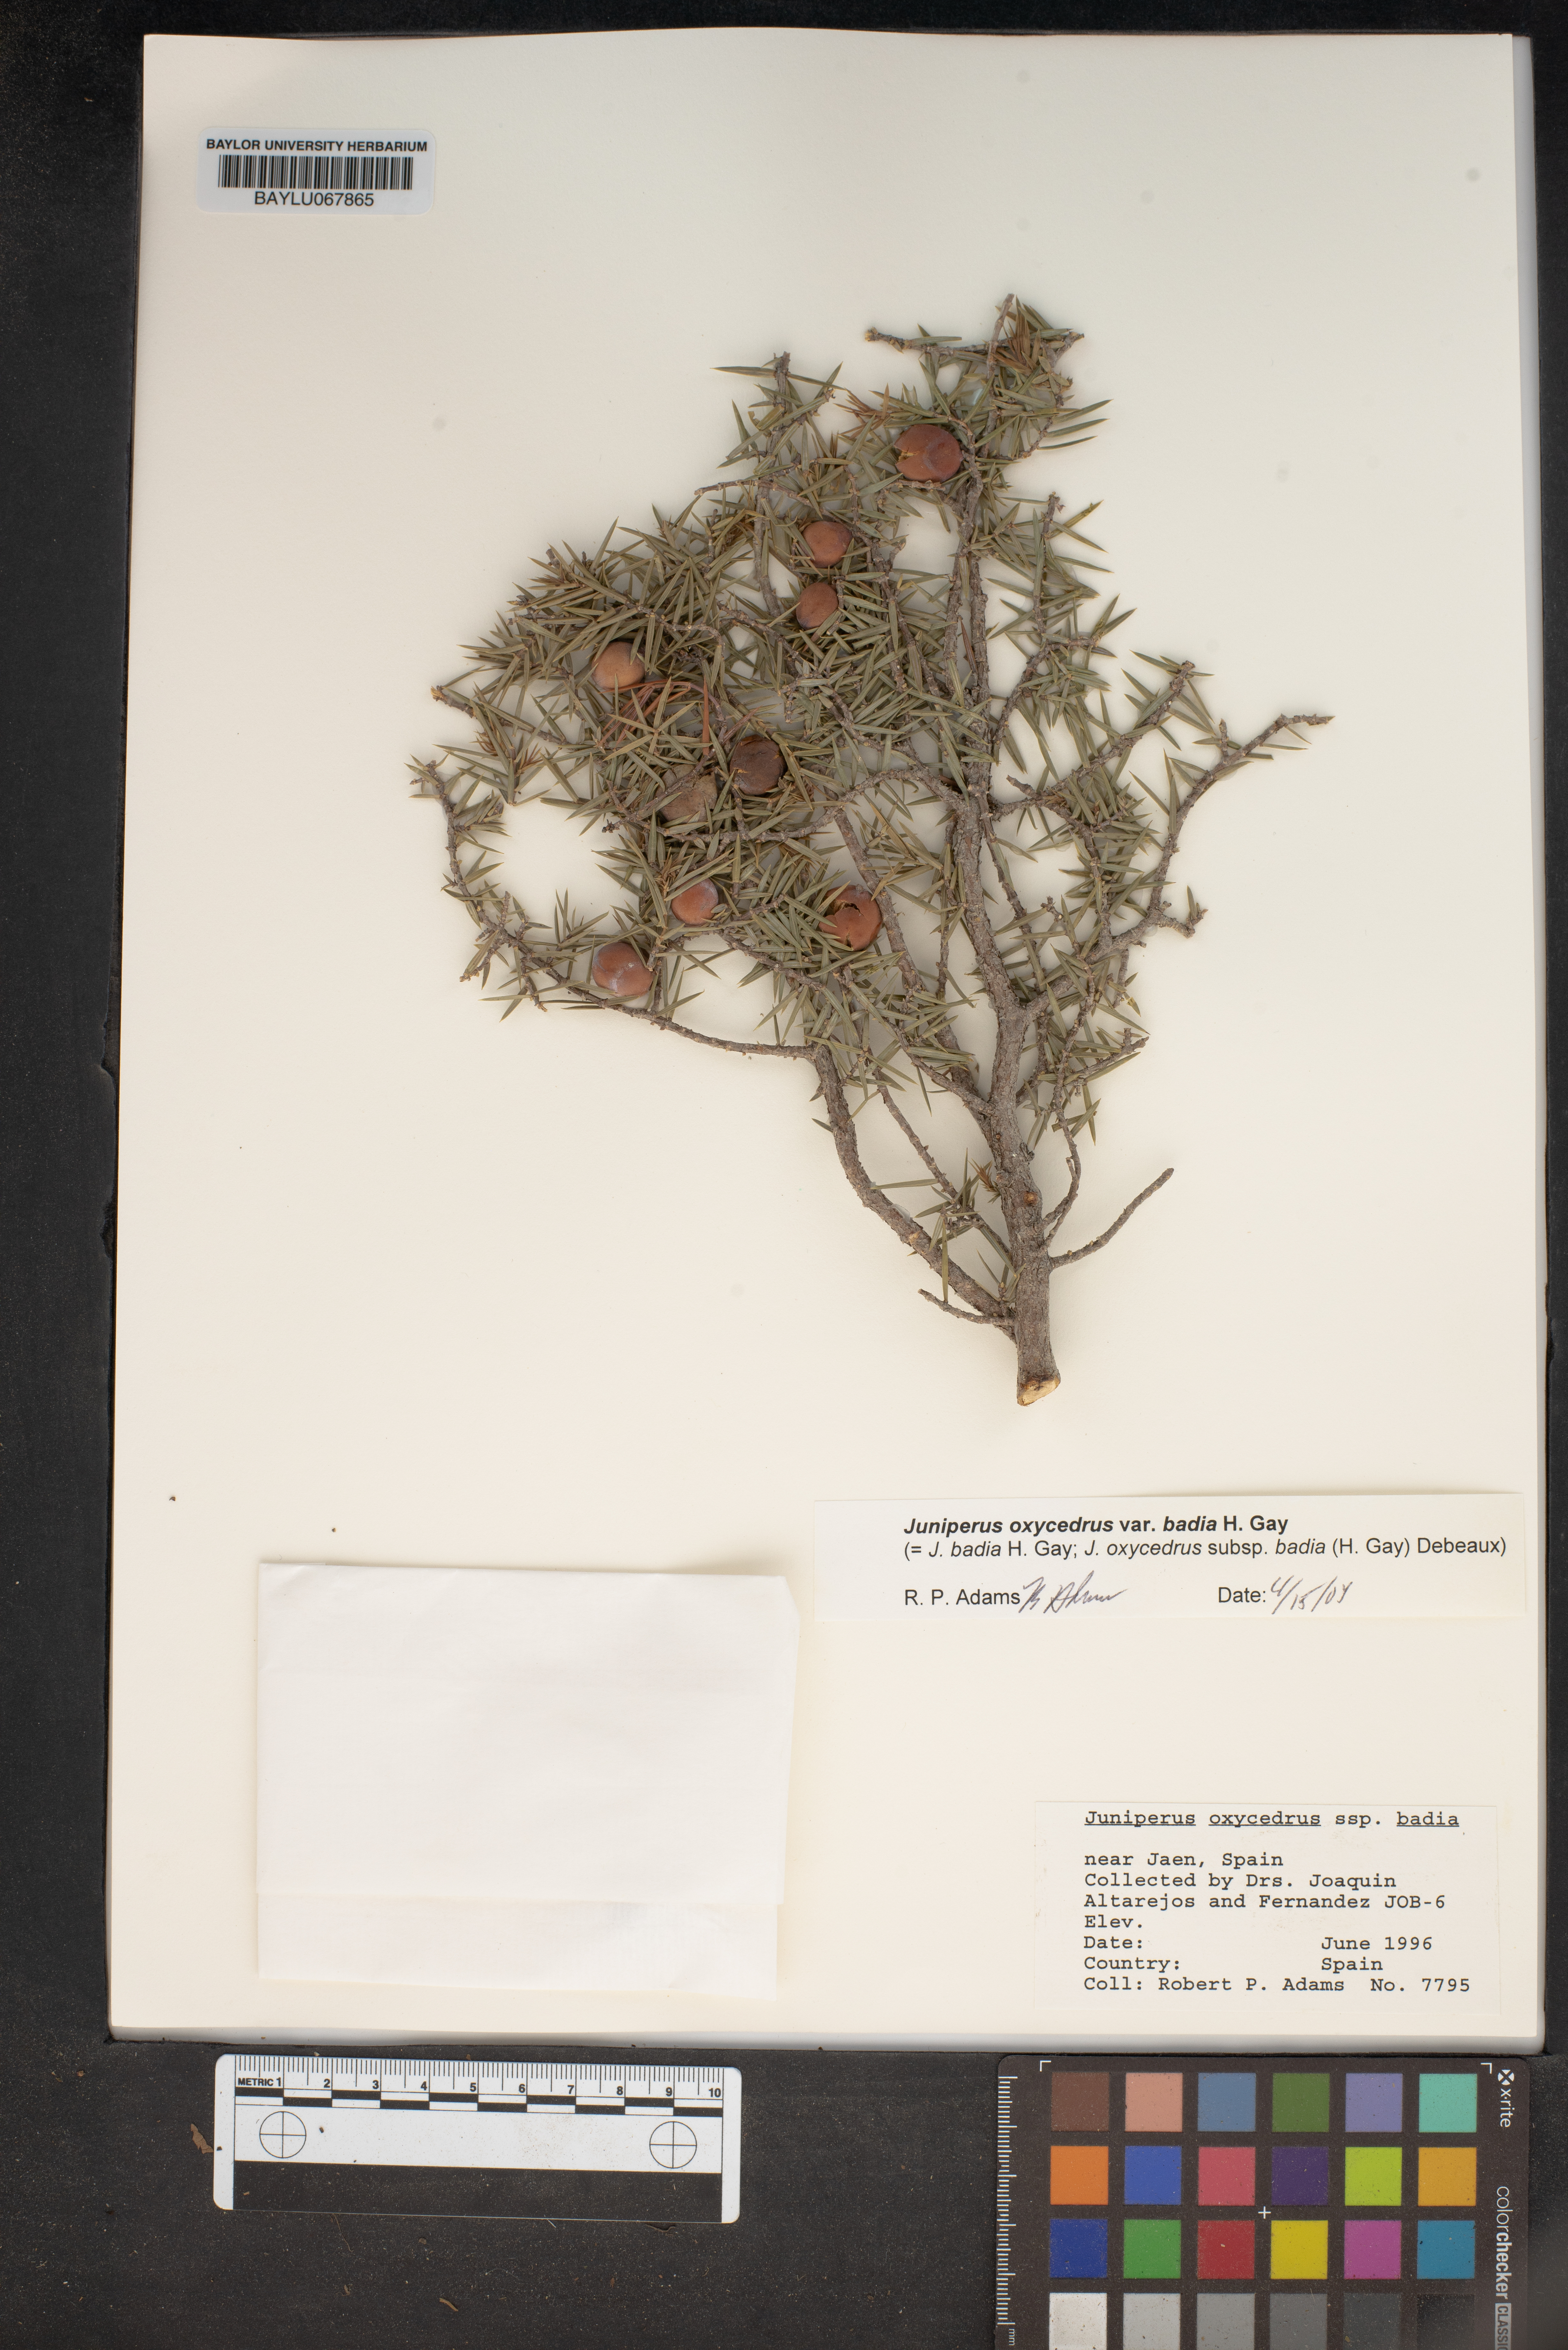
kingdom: Plantae
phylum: Tracheophyta
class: Pinopsida
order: Pinales
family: Cupressaceae
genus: Juniperus
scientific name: Juniperus oxycedrus
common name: Prickly juniper
